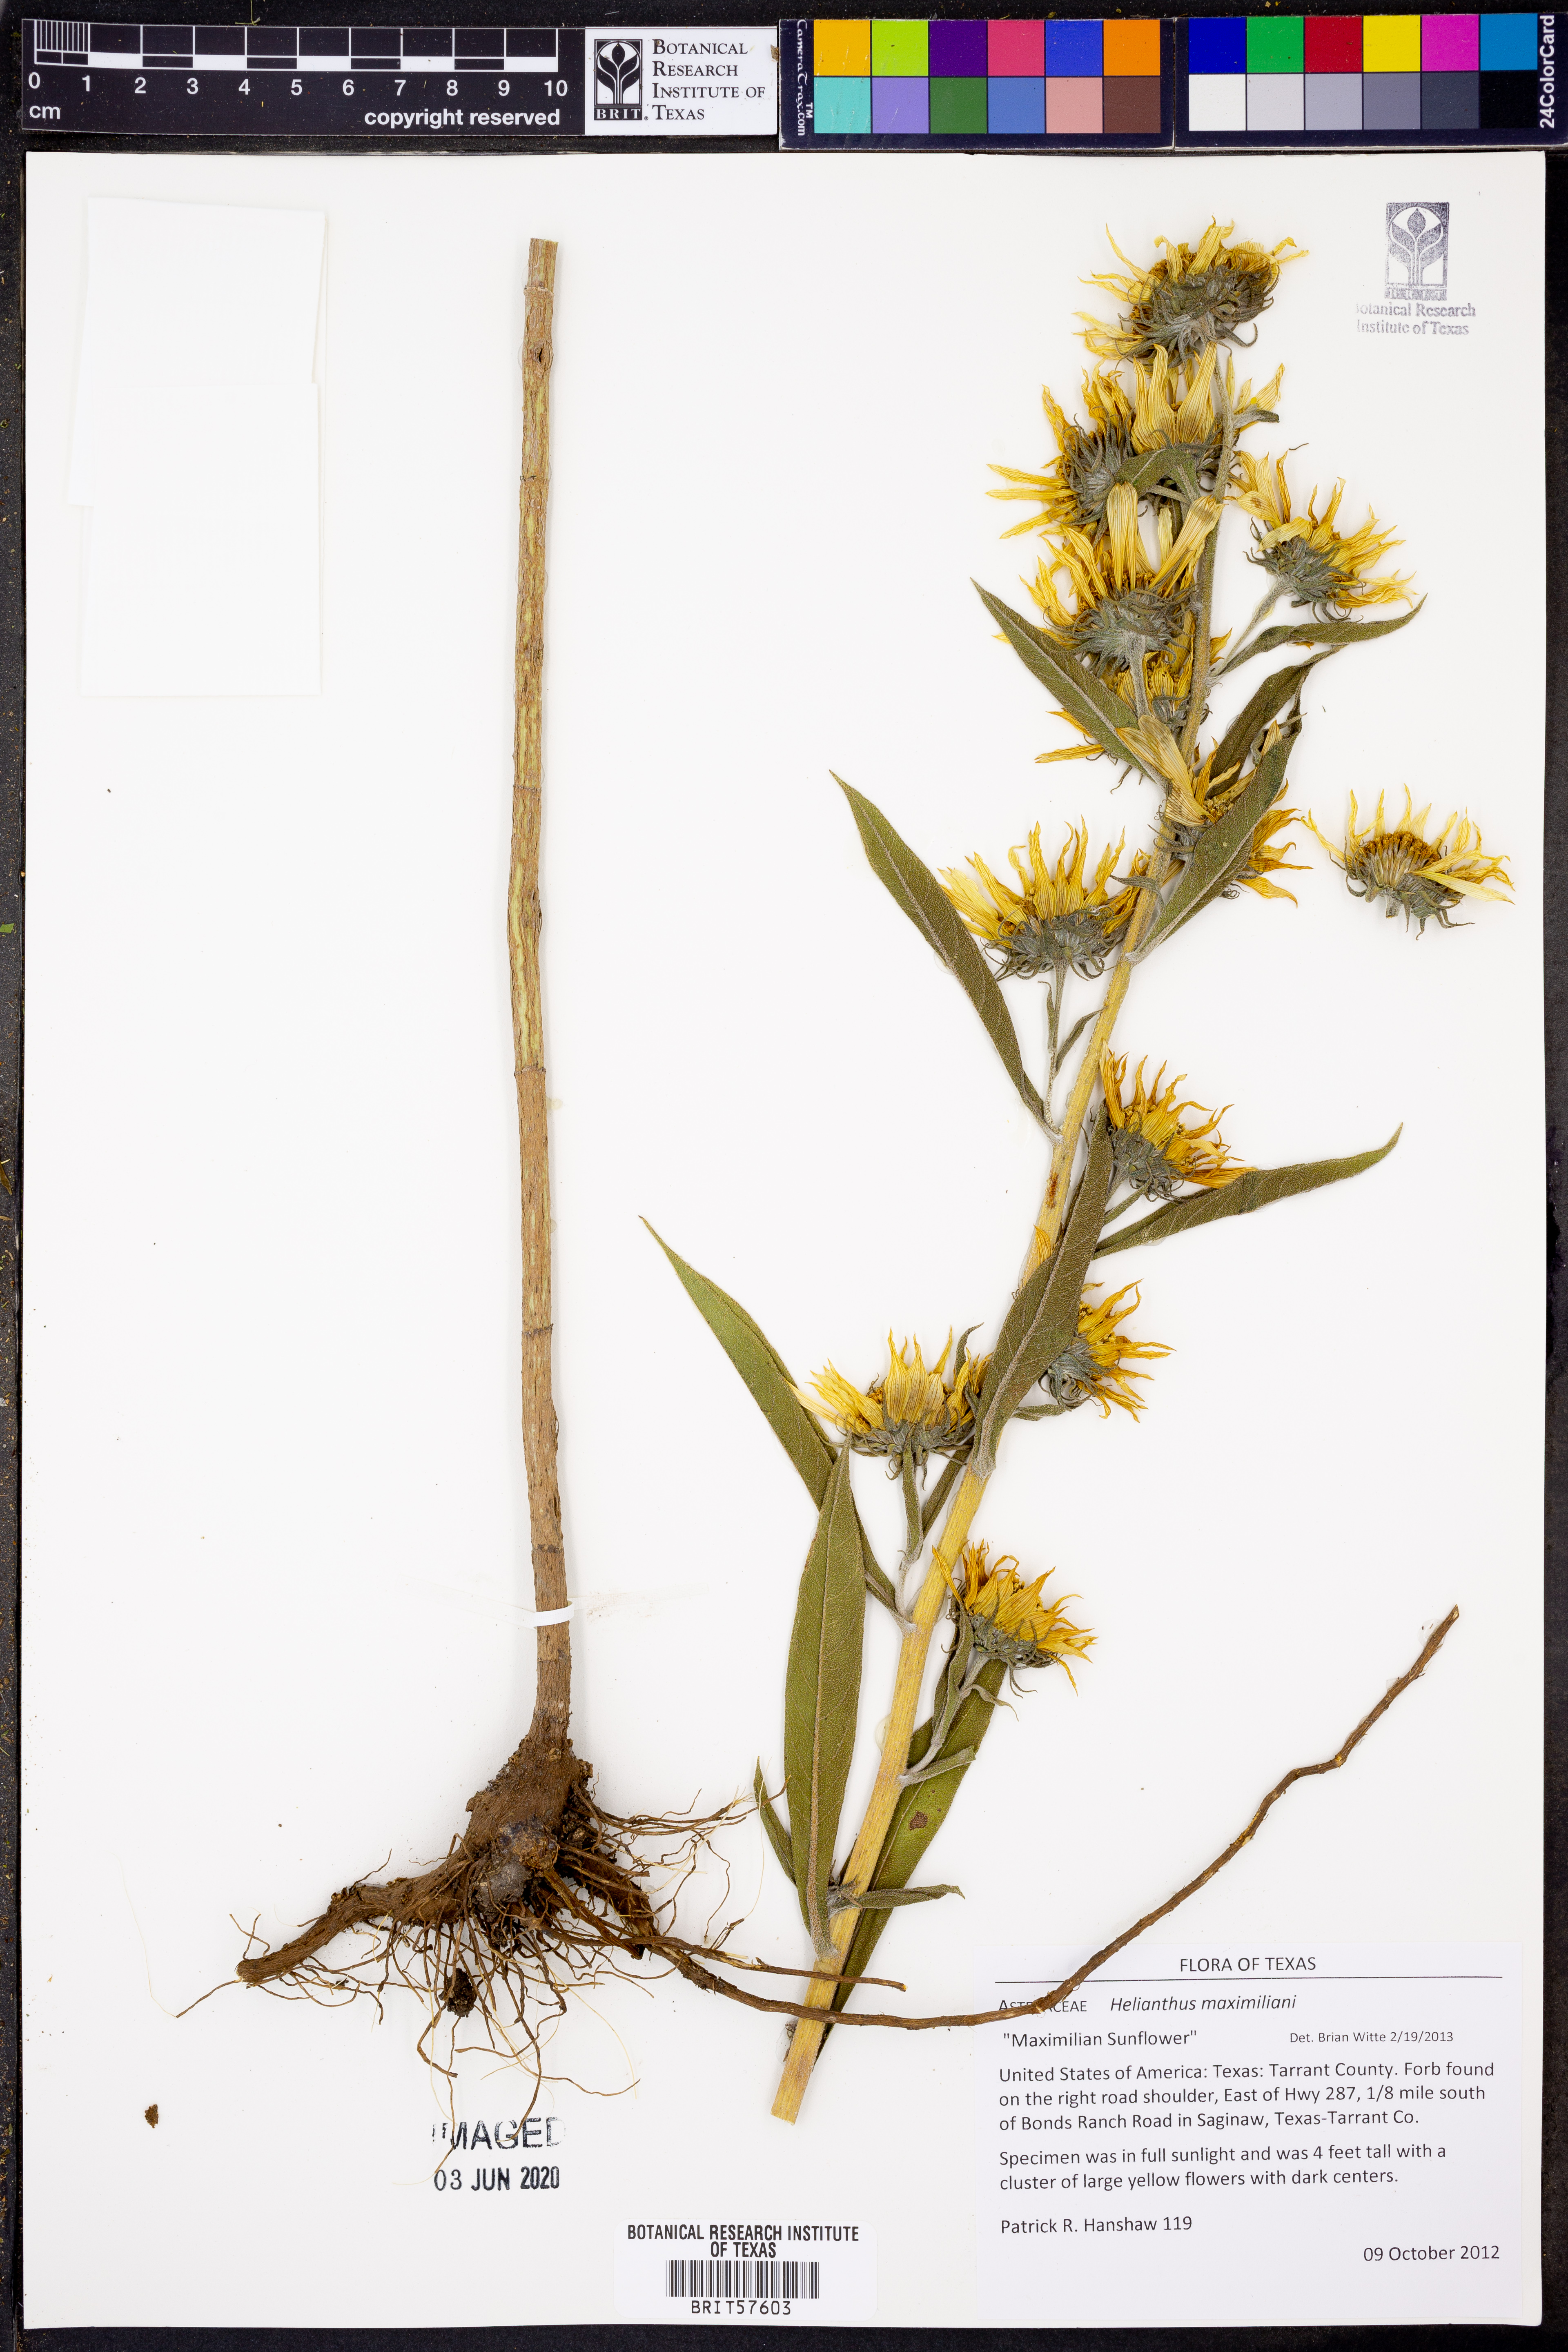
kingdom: Plantae
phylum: Tracheophyta
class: Magnoliopsida
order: Asterales
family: Asteraceae
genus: Helianthus
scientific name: Helianthus maximiliani
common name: Maximilian's sunflower
